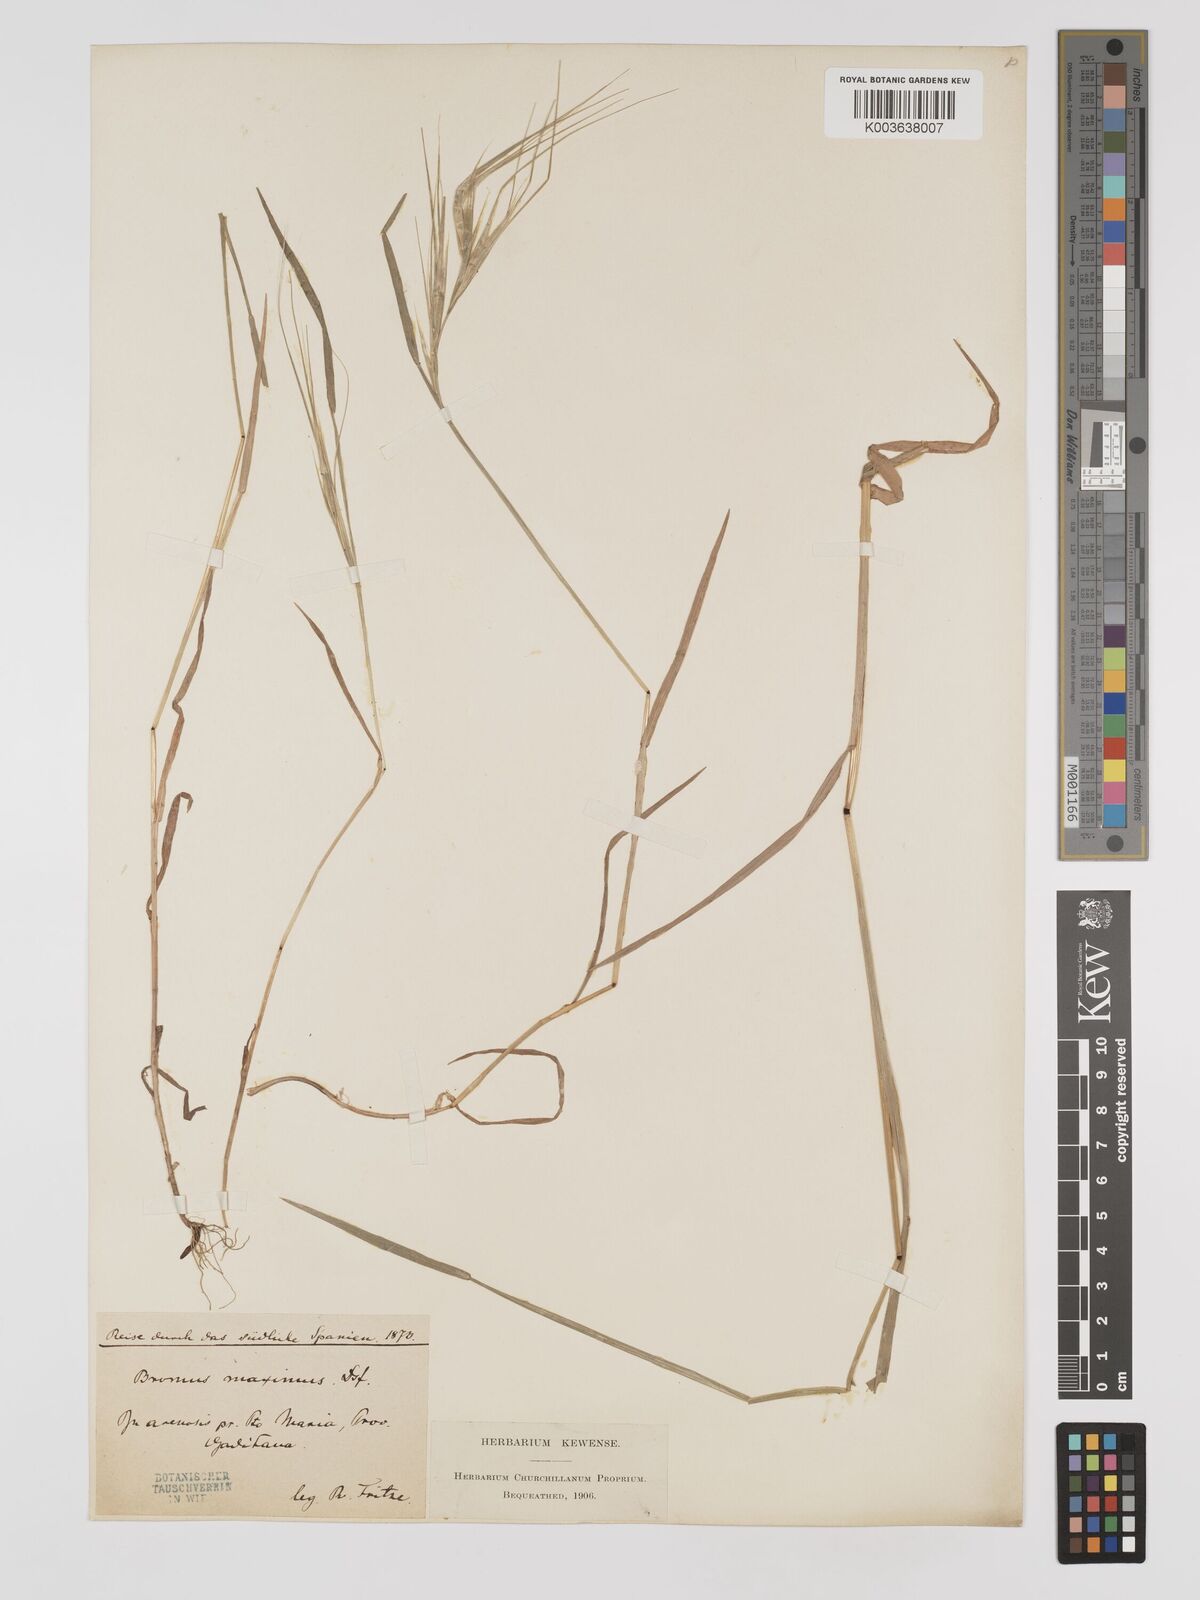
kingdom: Plantae
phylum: Tracheophyta
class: Liliopsida
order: Poales
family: Poaceae
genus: Bromus
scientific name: Bromus
